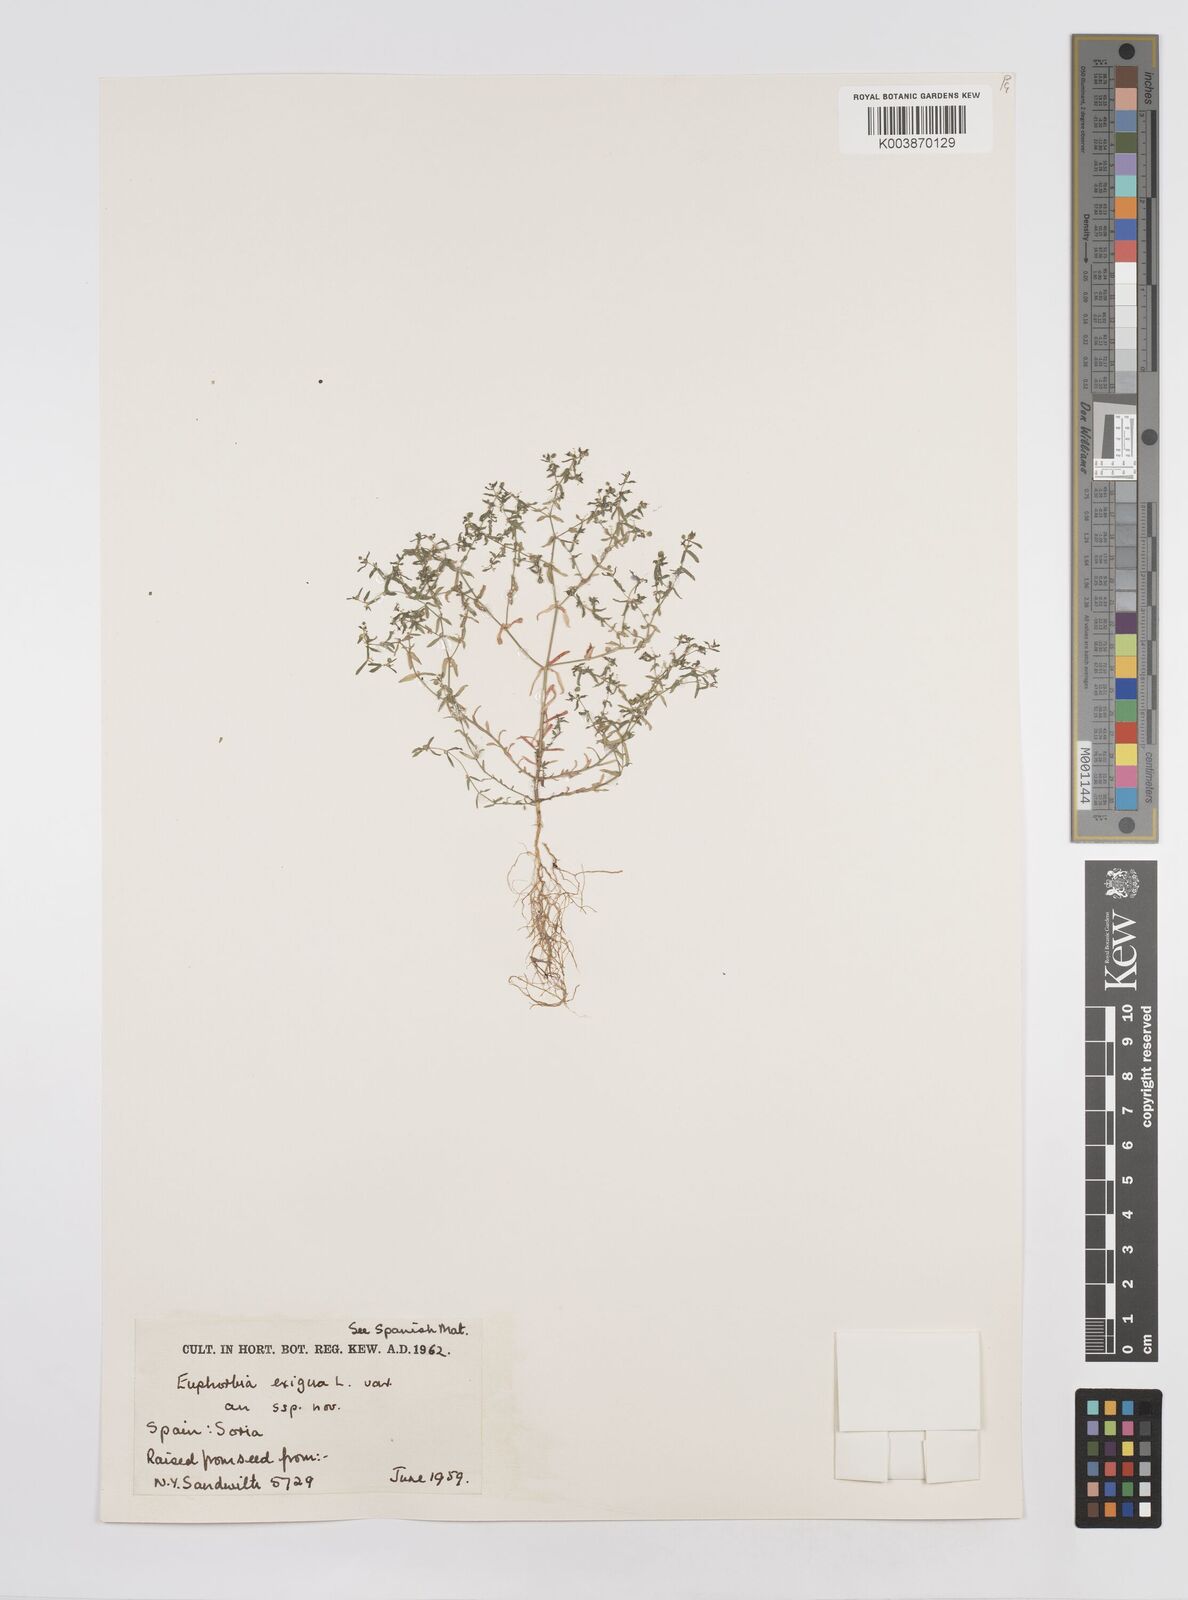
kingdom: Plantae
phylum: Tracheophyta
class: Magnoliopsida
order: Malpighiales
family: Euphorbiaceae
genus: Euphorbia
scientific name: Euphorbia exigua
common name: Dwarf spurge
